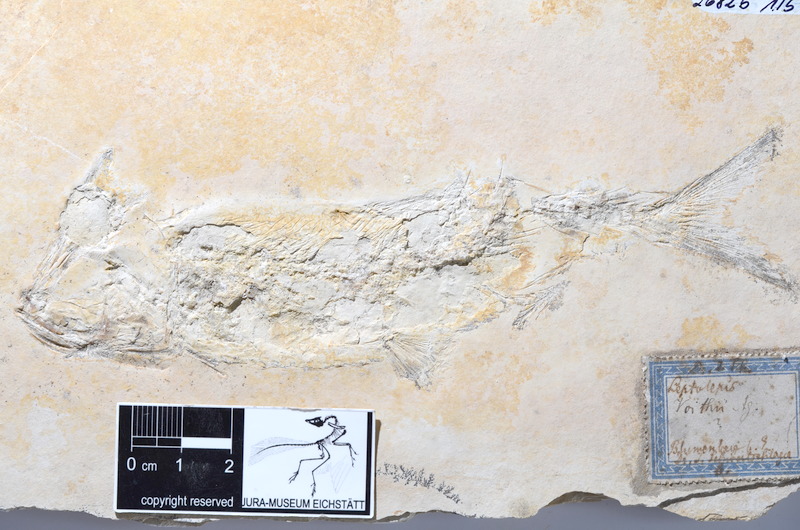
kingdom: Animalia
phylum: Chordata
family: Ascalaboidae
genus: Tharsis
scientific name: Tharsis dubius
